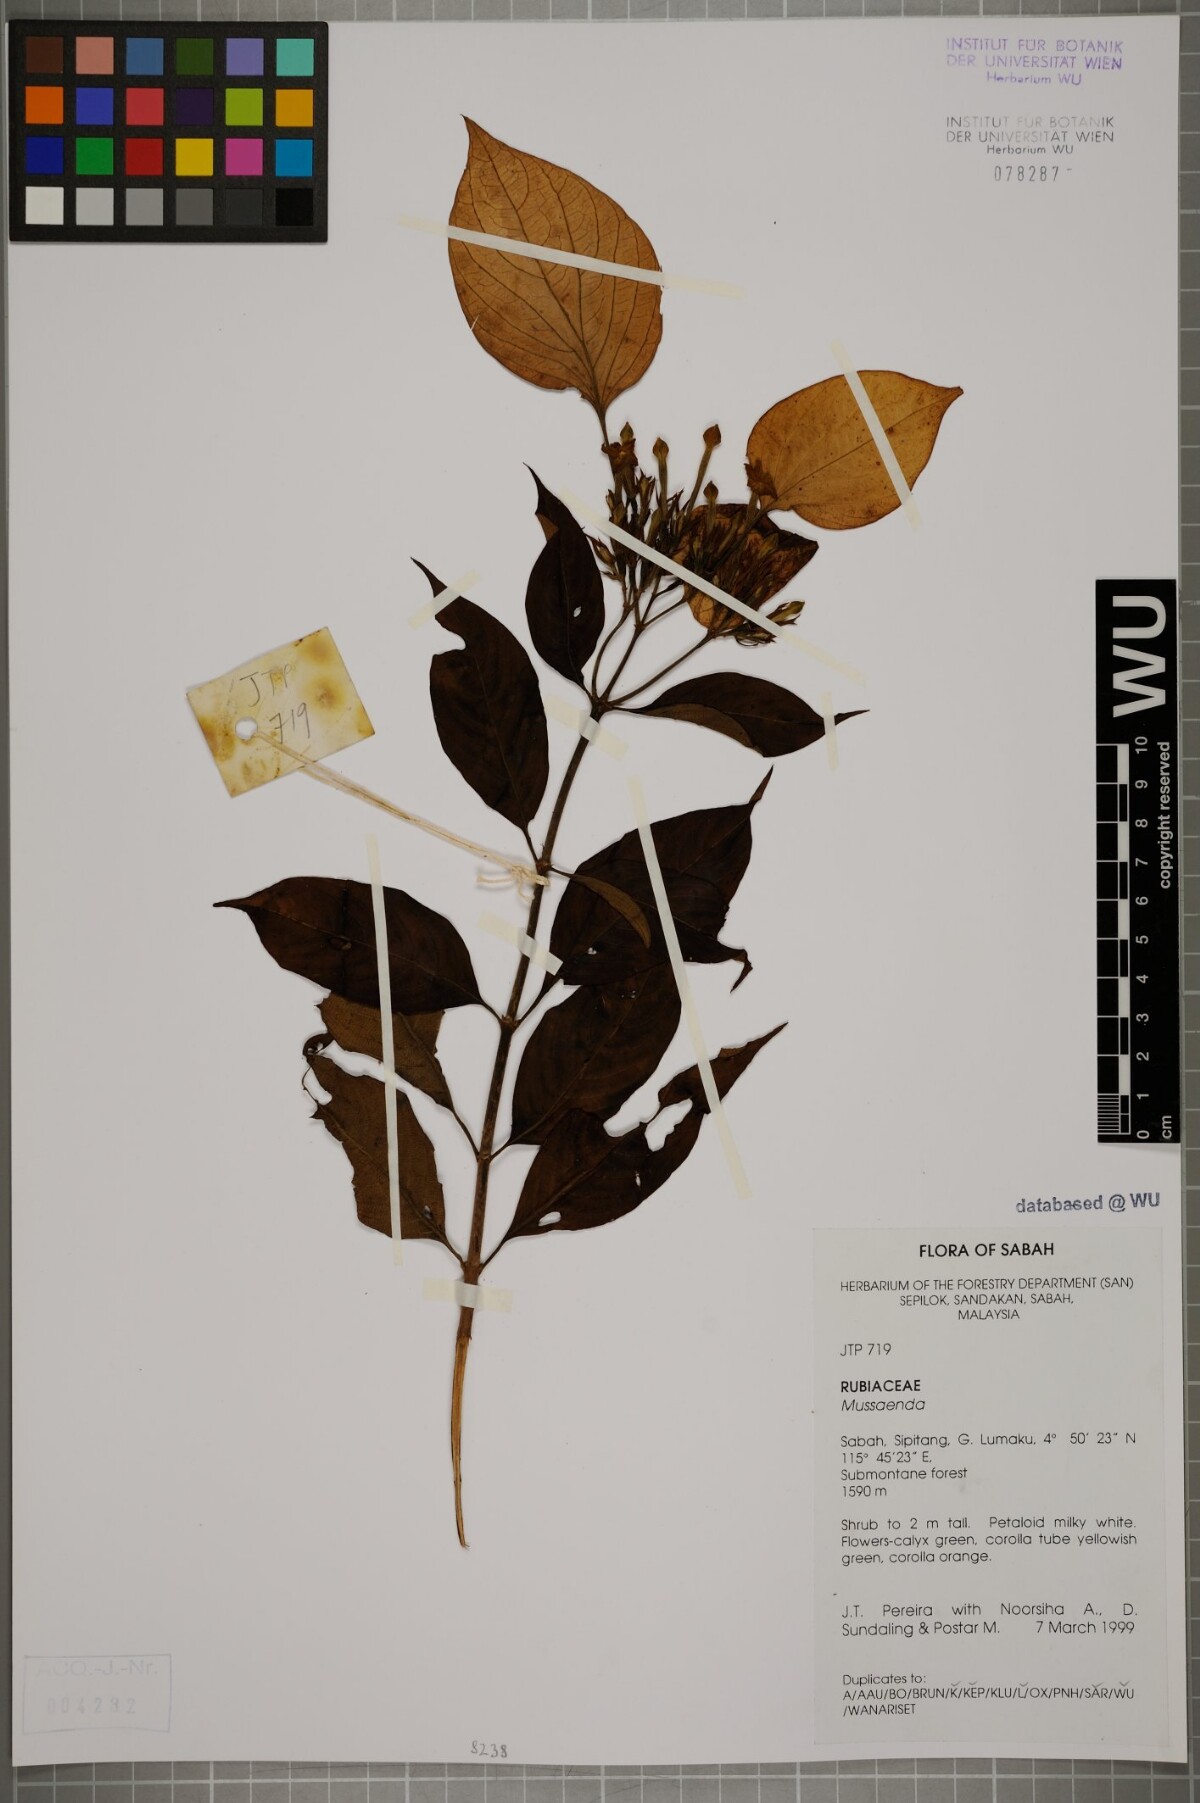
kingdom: Plantae
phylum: Tracheophyta
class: Magnoliopsida
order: Gentianales
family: Rubiaceae
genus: Mussaenda
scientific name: Mussaenda
